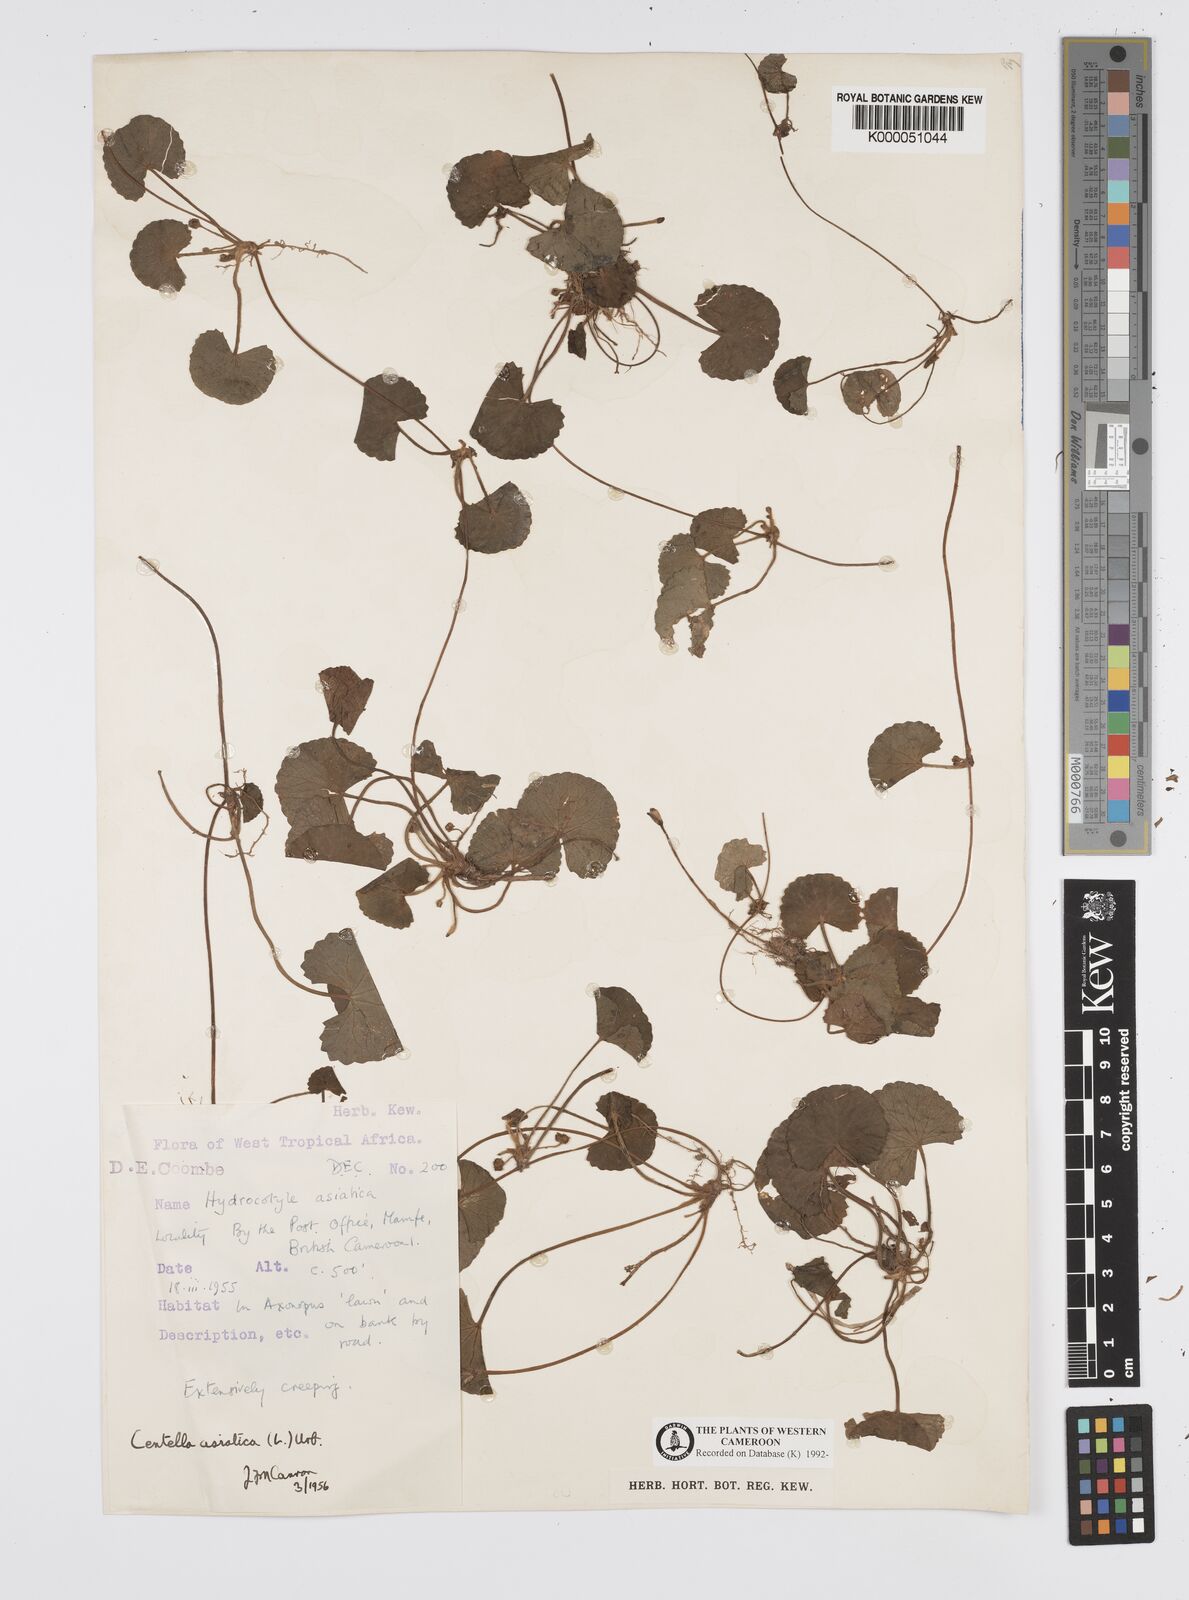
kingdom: Plantae
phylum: Tracheophyta
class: Magnoliopsida
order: Apiales
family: Apiaceae
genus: Centella
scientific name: Centella asiatica
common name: Spadeleaf
